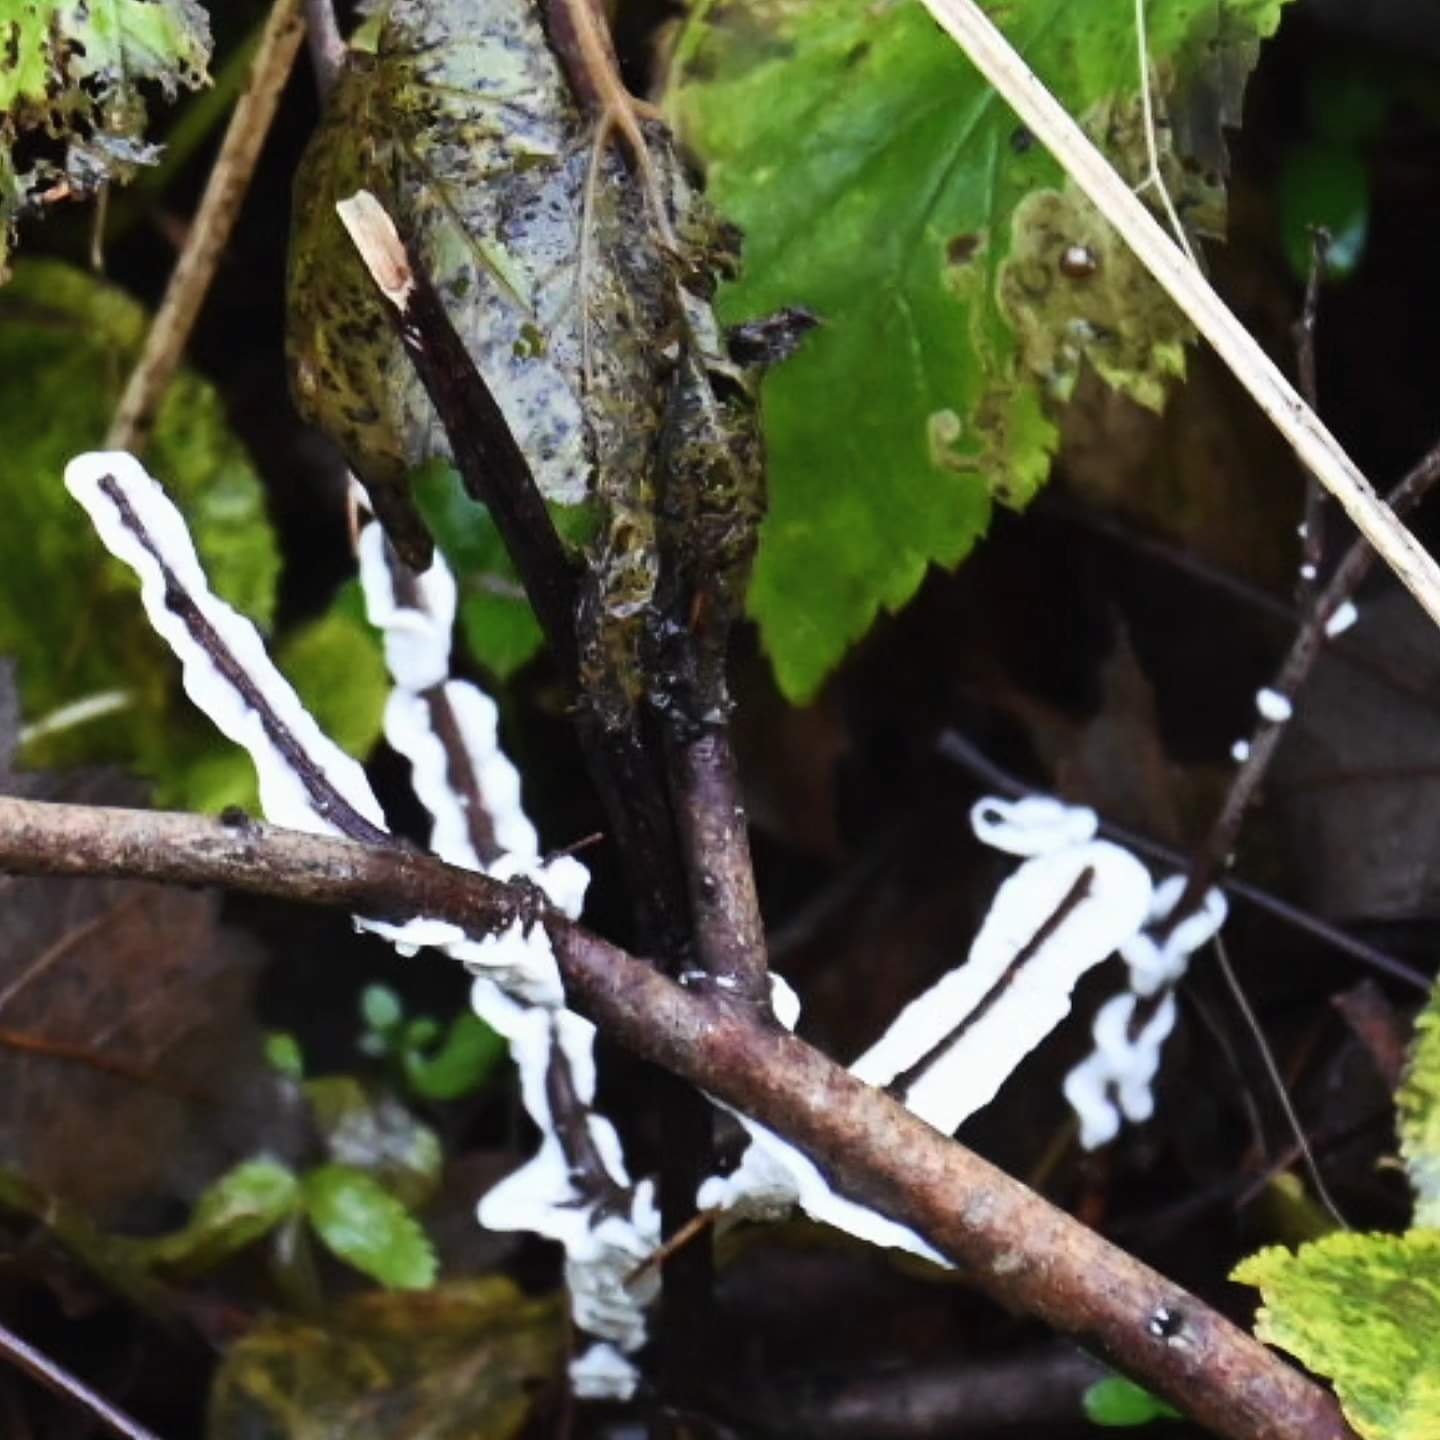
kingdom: Fungi
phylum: Basidiomycota
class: Agaricomycetes
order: Polyporales
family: Irpicaceae
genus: Byssomerulius
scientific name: Byssomerulius corium
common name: læder-åresvamp
